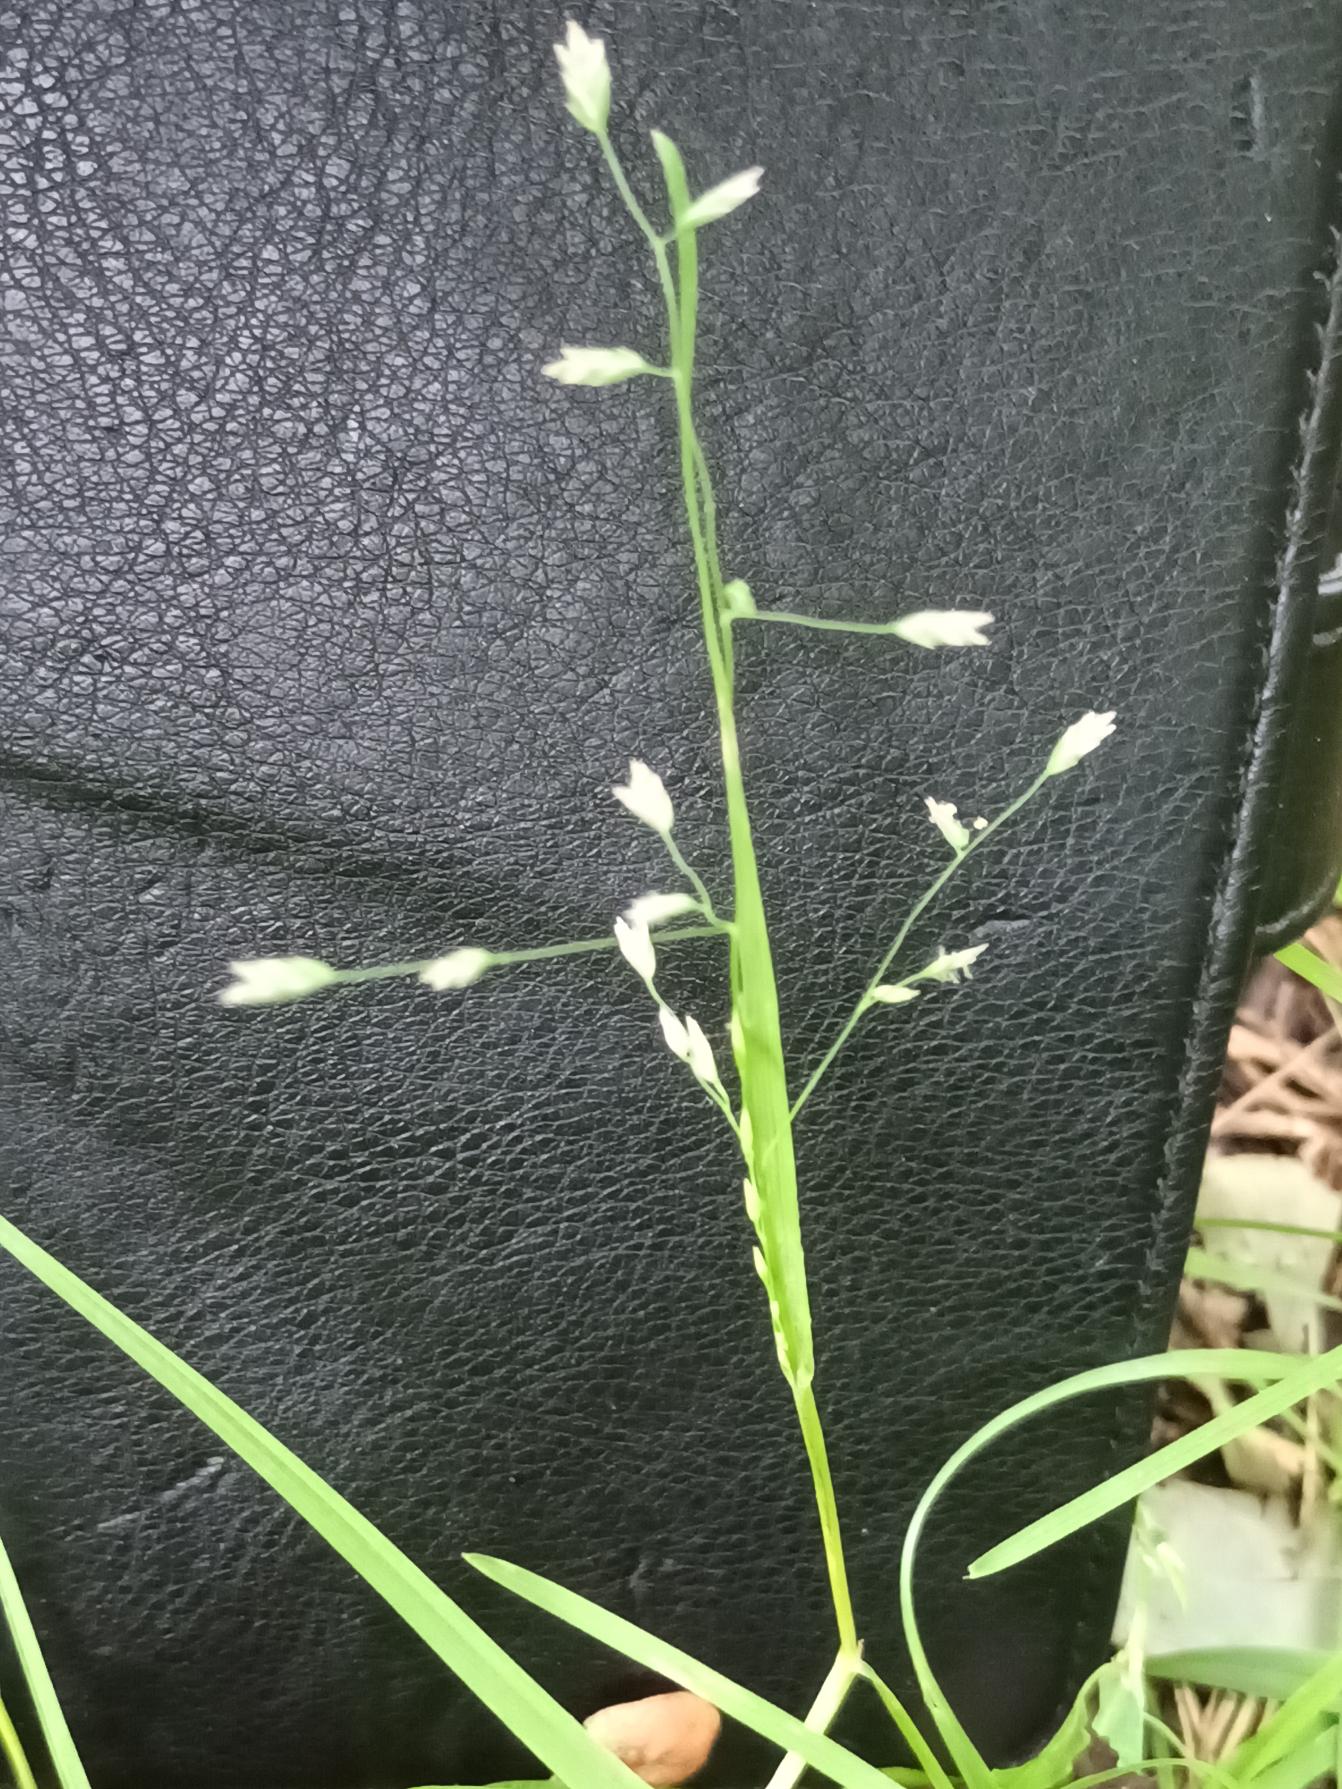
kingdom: Plantae
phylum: Tracheophyta
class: Liliopsida
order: Poales
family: Poaceae
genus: Poa
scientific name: Poa annua
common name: Enårig rapgræs
